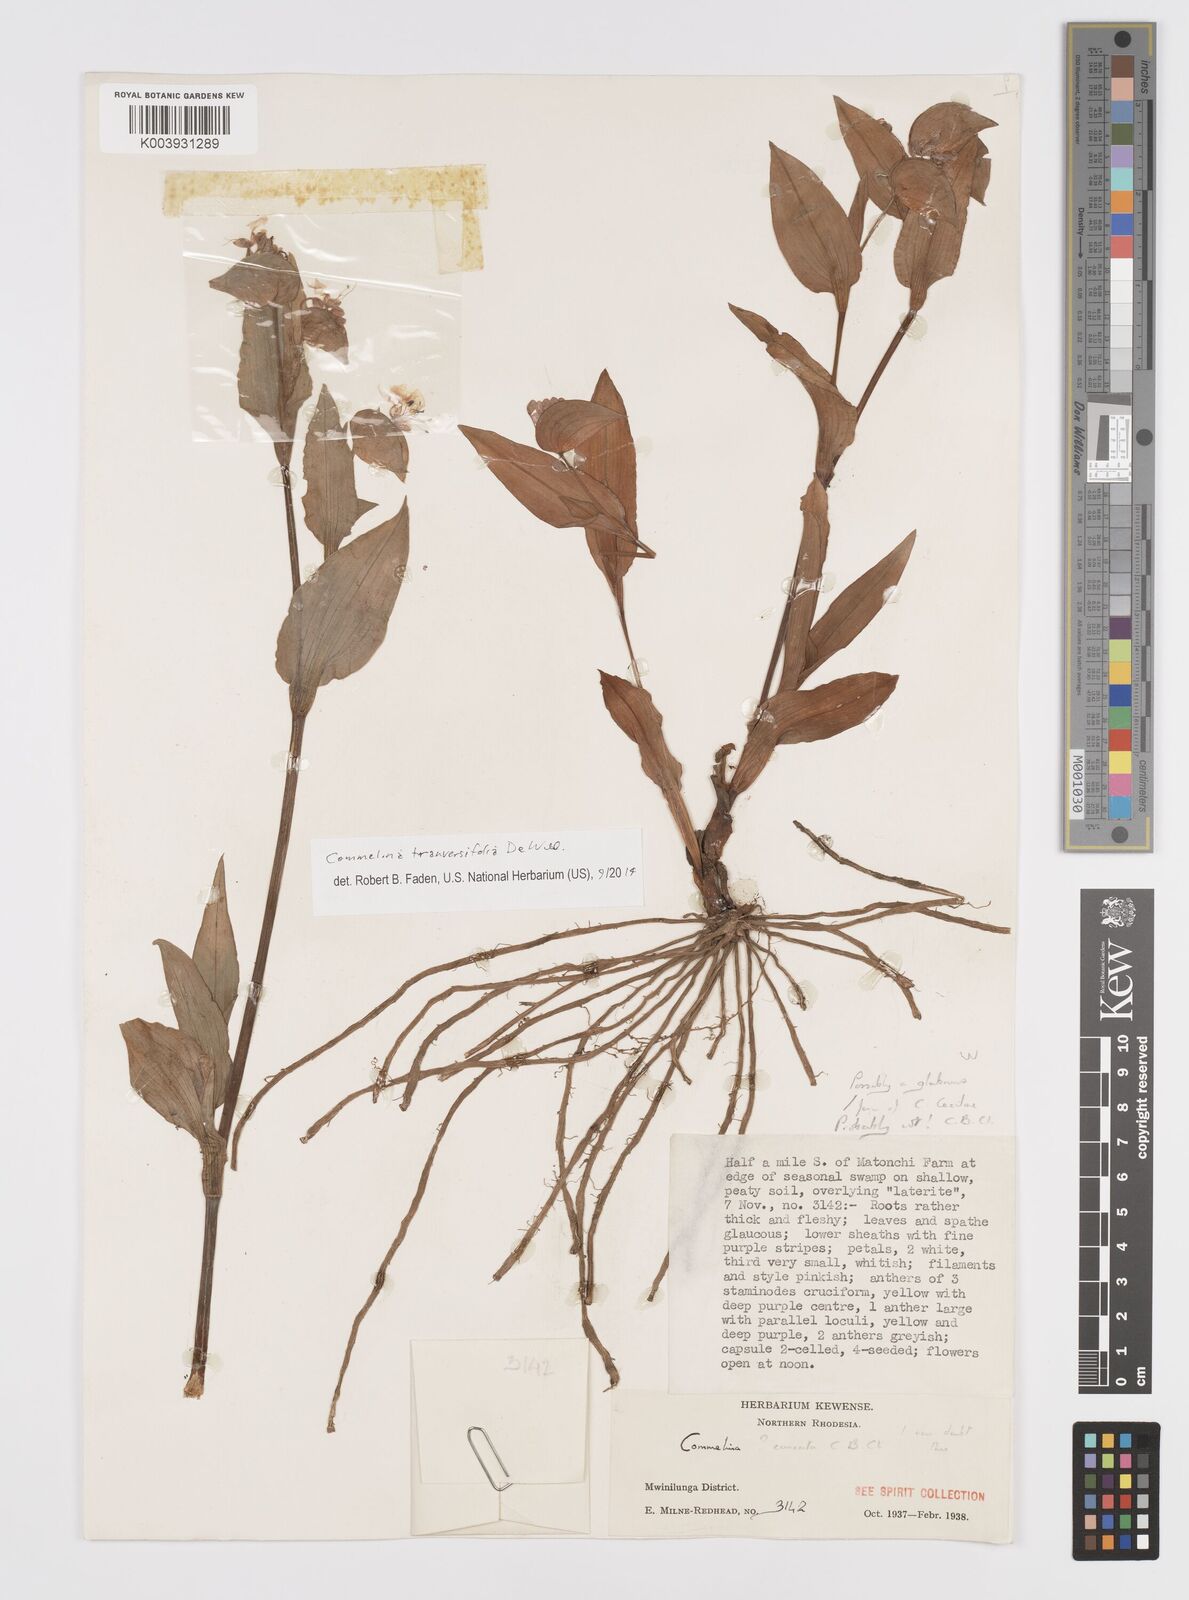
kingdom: Plantae
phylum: Tracheophyta
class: Liliopsida
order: Commelinales
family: Commelinaceae
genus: Commelina
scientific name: Commelina transversifolia
